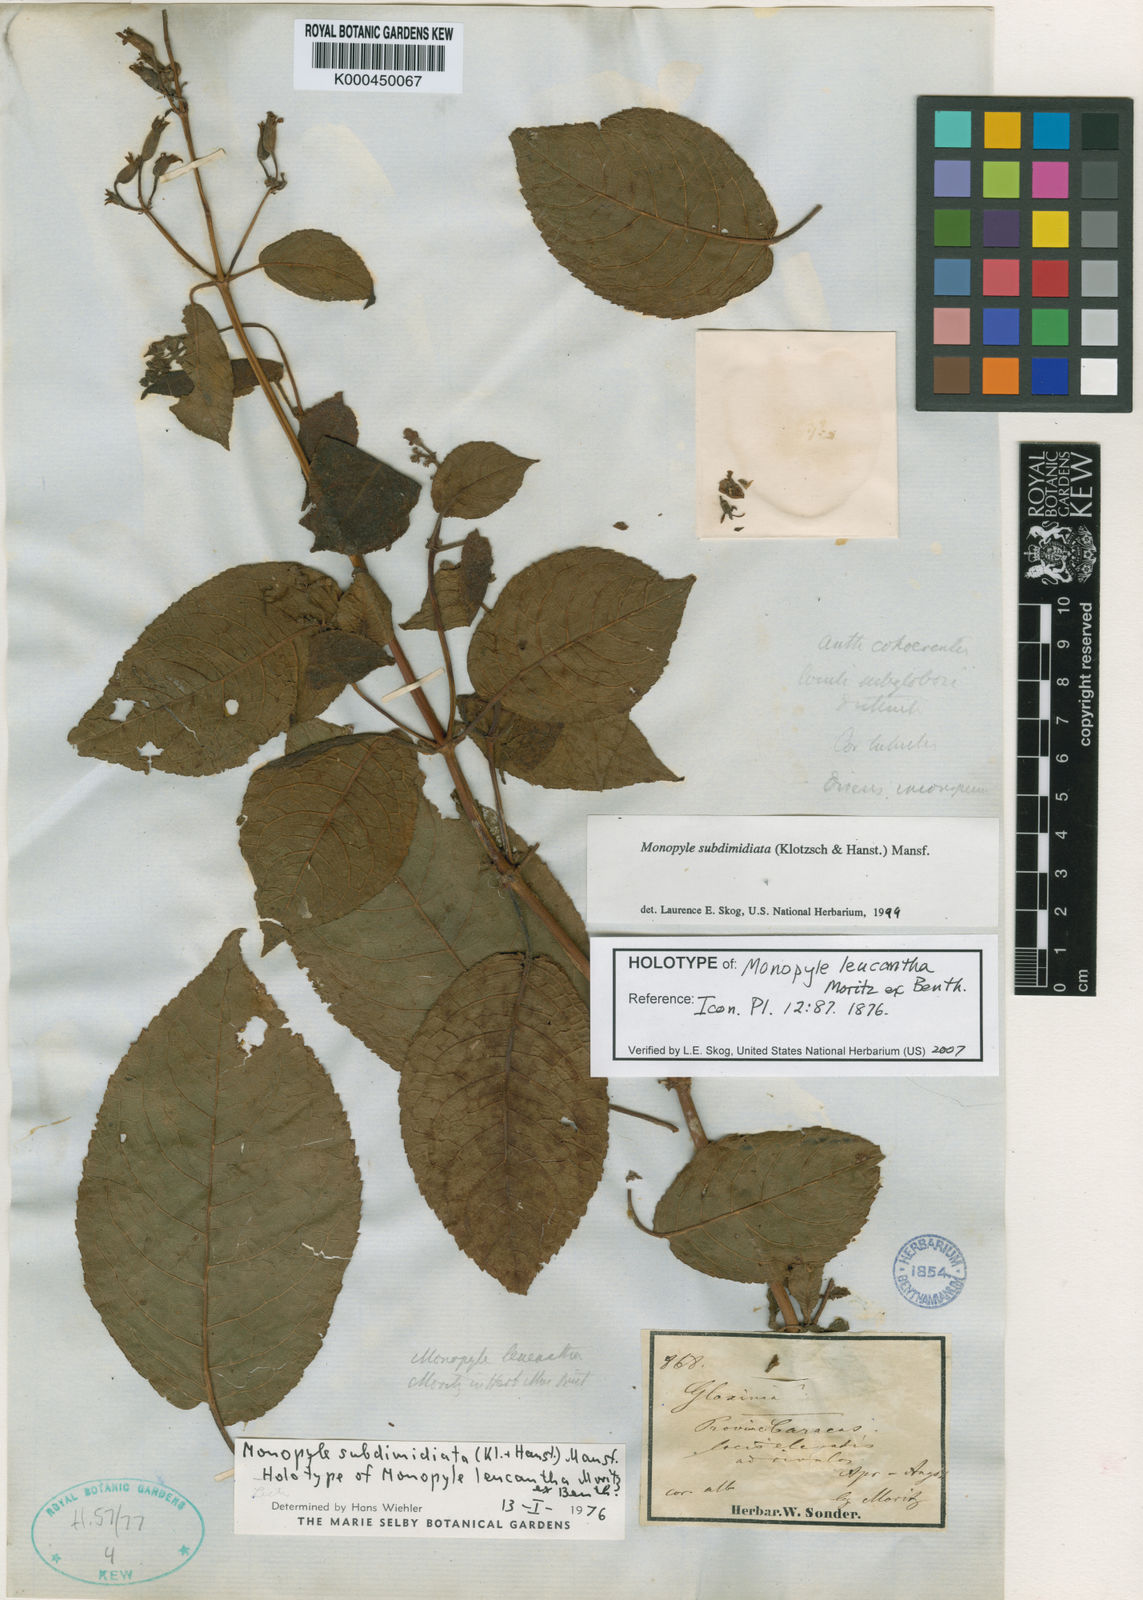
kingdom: Plantae
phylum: Tracheophyta
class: Magnoliopsida
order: Lamiales
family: Gesneriaceae
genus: Monopyle
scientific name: Monopyle subdimidiata
